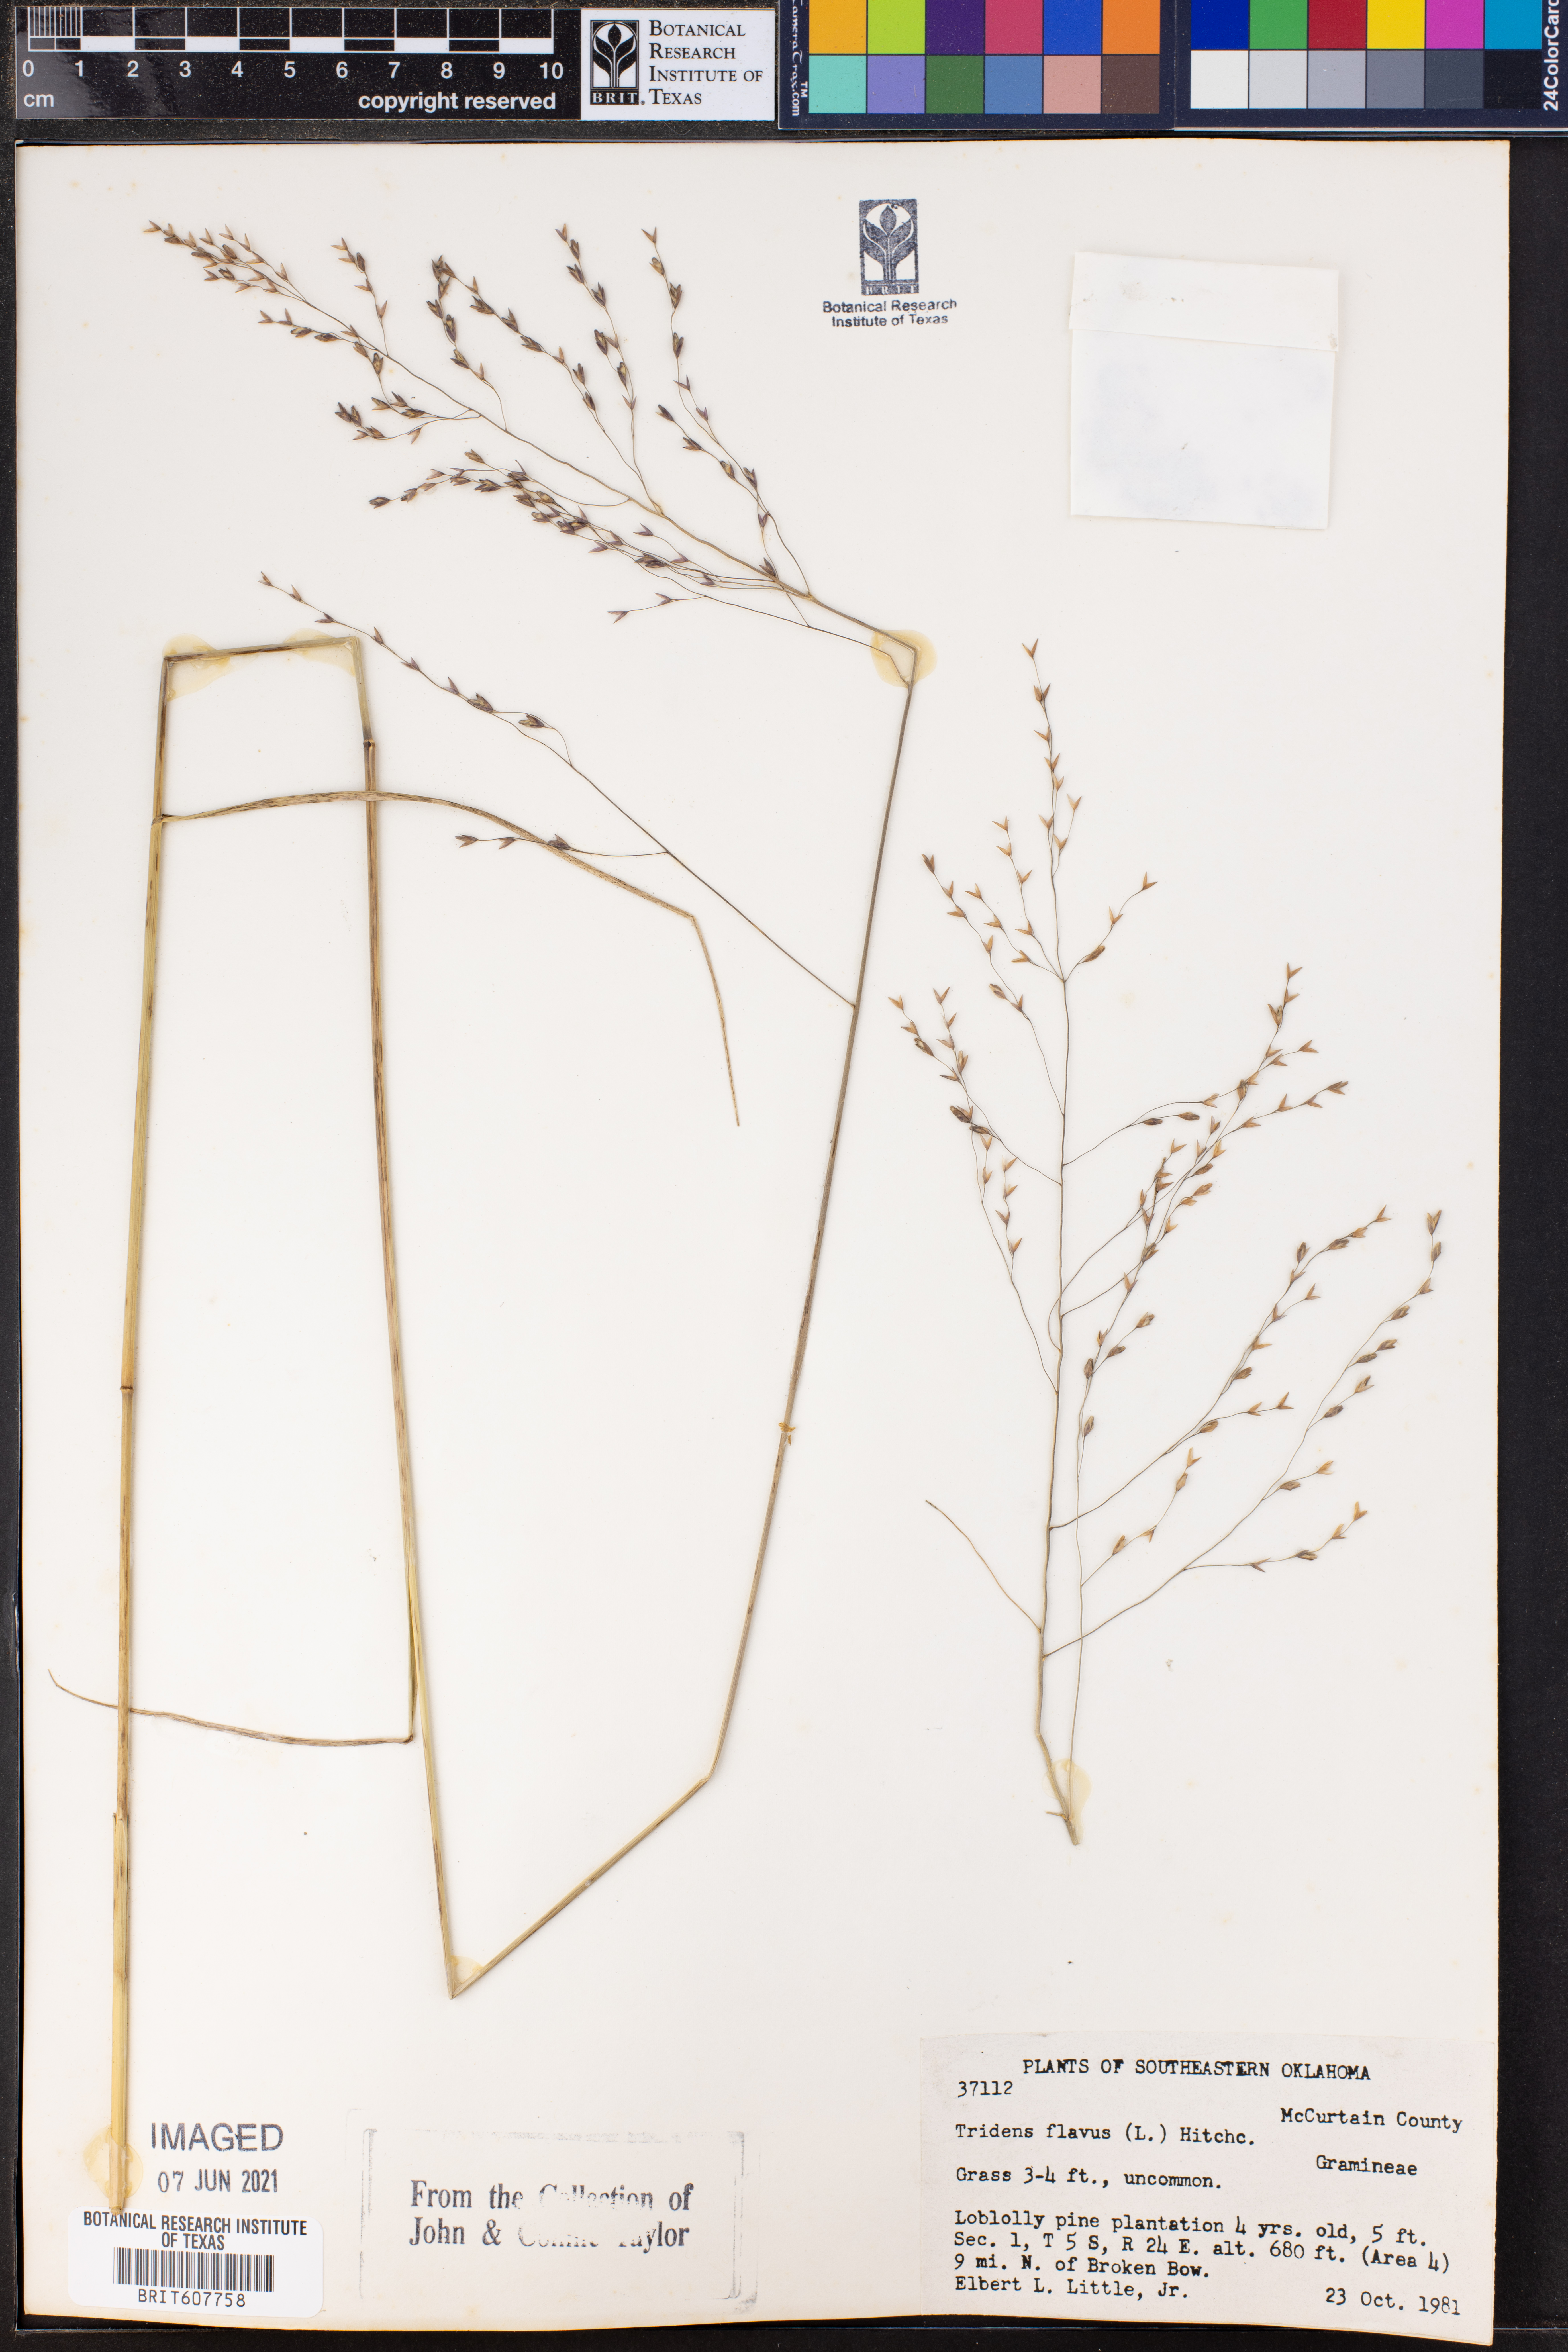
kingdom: Plantae
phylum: Tracheophyta
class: Liliopsida
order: Poales
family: Poaceae
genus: Tridens
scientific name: Tridens flavus
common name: Purpletop
